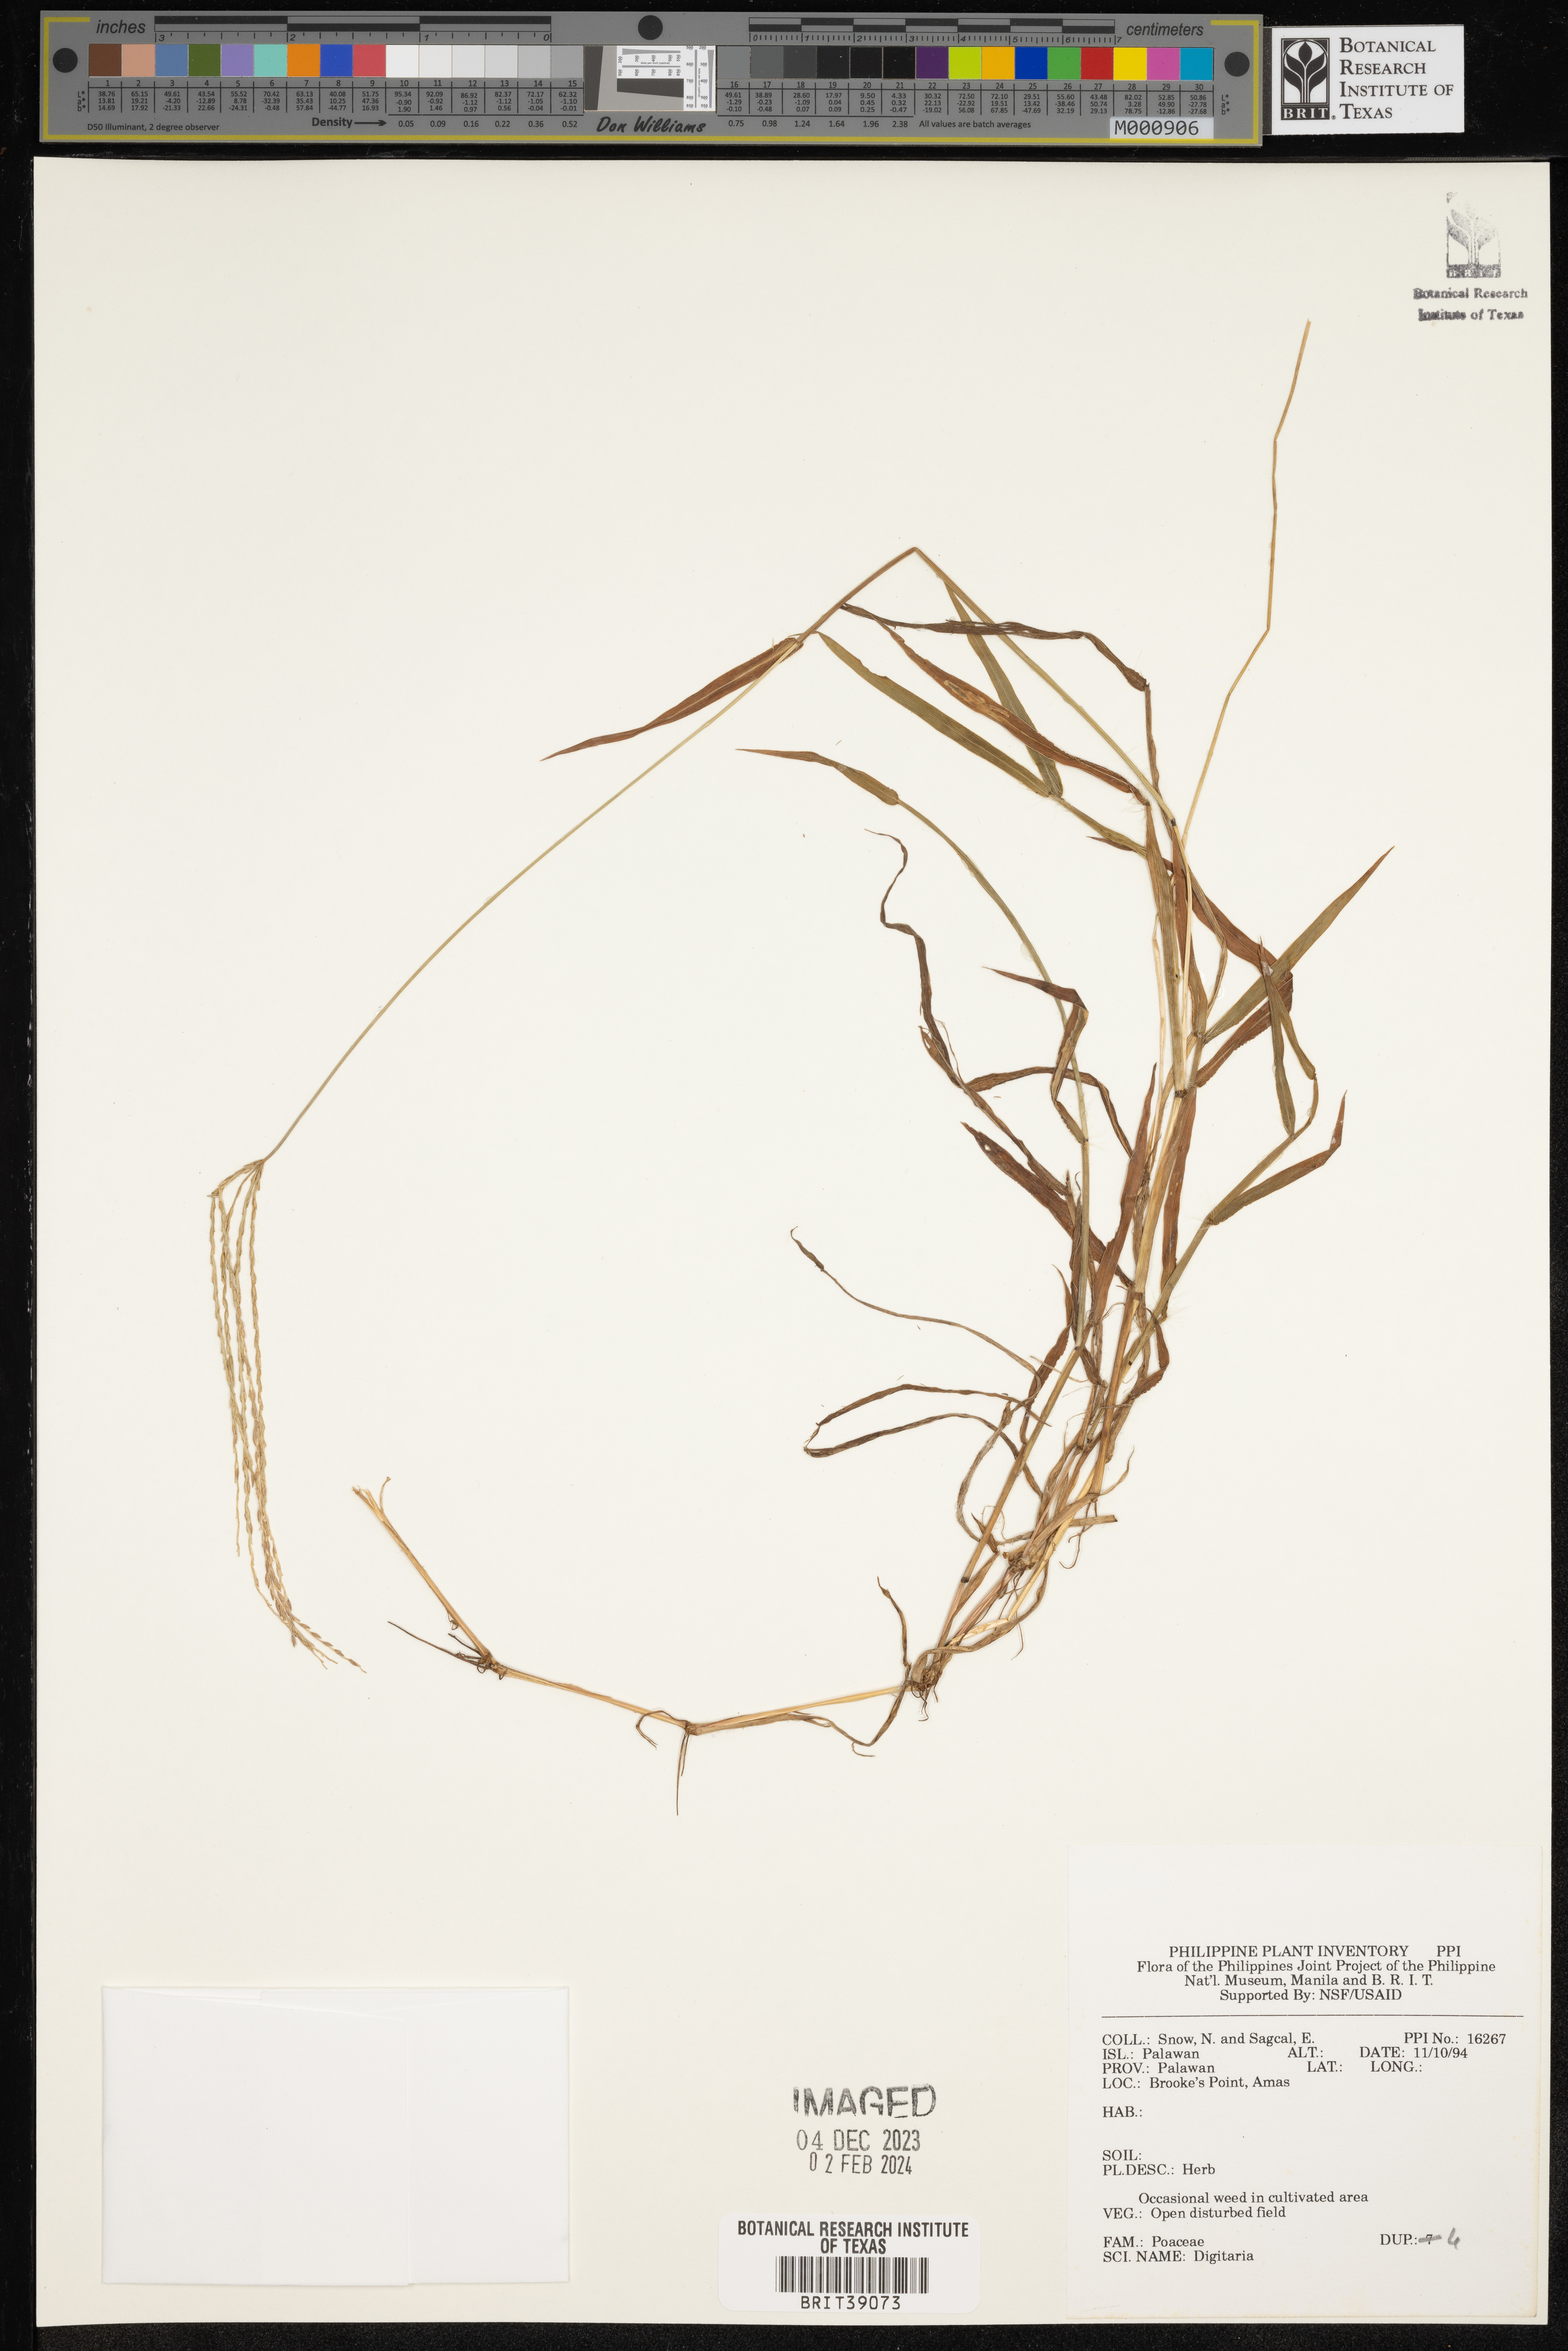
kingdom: Plantae
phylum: Tracheophyta
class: Liliopsida
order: Poales
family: Poaceae
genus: Digitaria
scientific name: Digitaria
